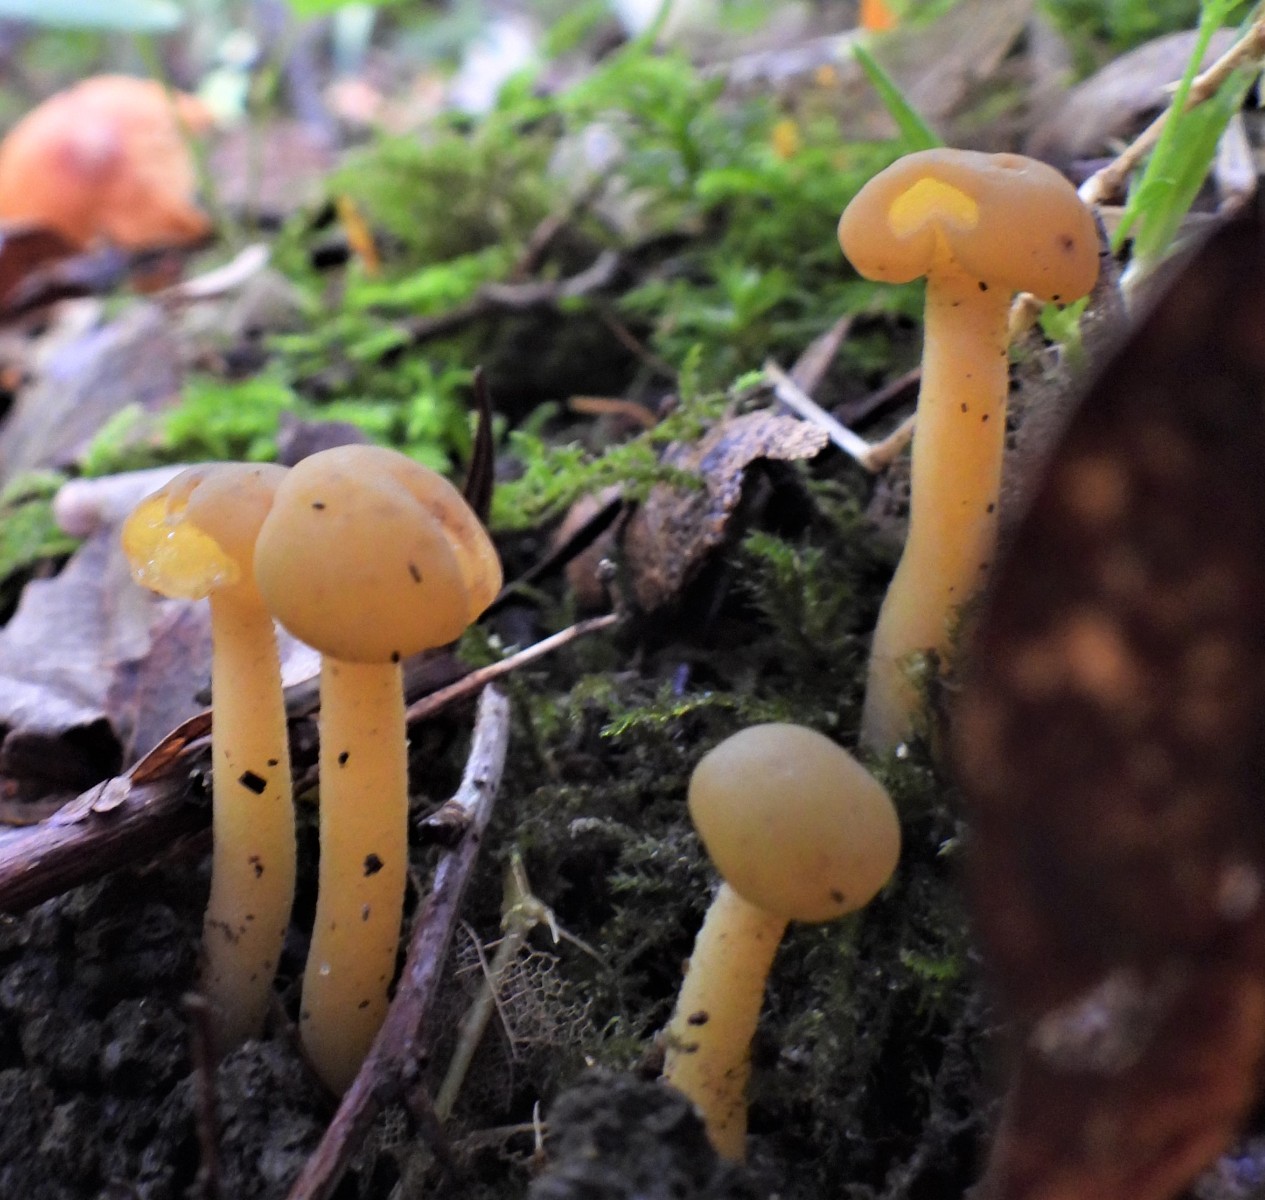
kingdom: Fungi
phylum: Ascomycota
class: Leotiomycetes
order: Leotiales
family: Leotiaceae
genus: Leotia
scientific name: Leotia lubrica
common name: ravsvamp
